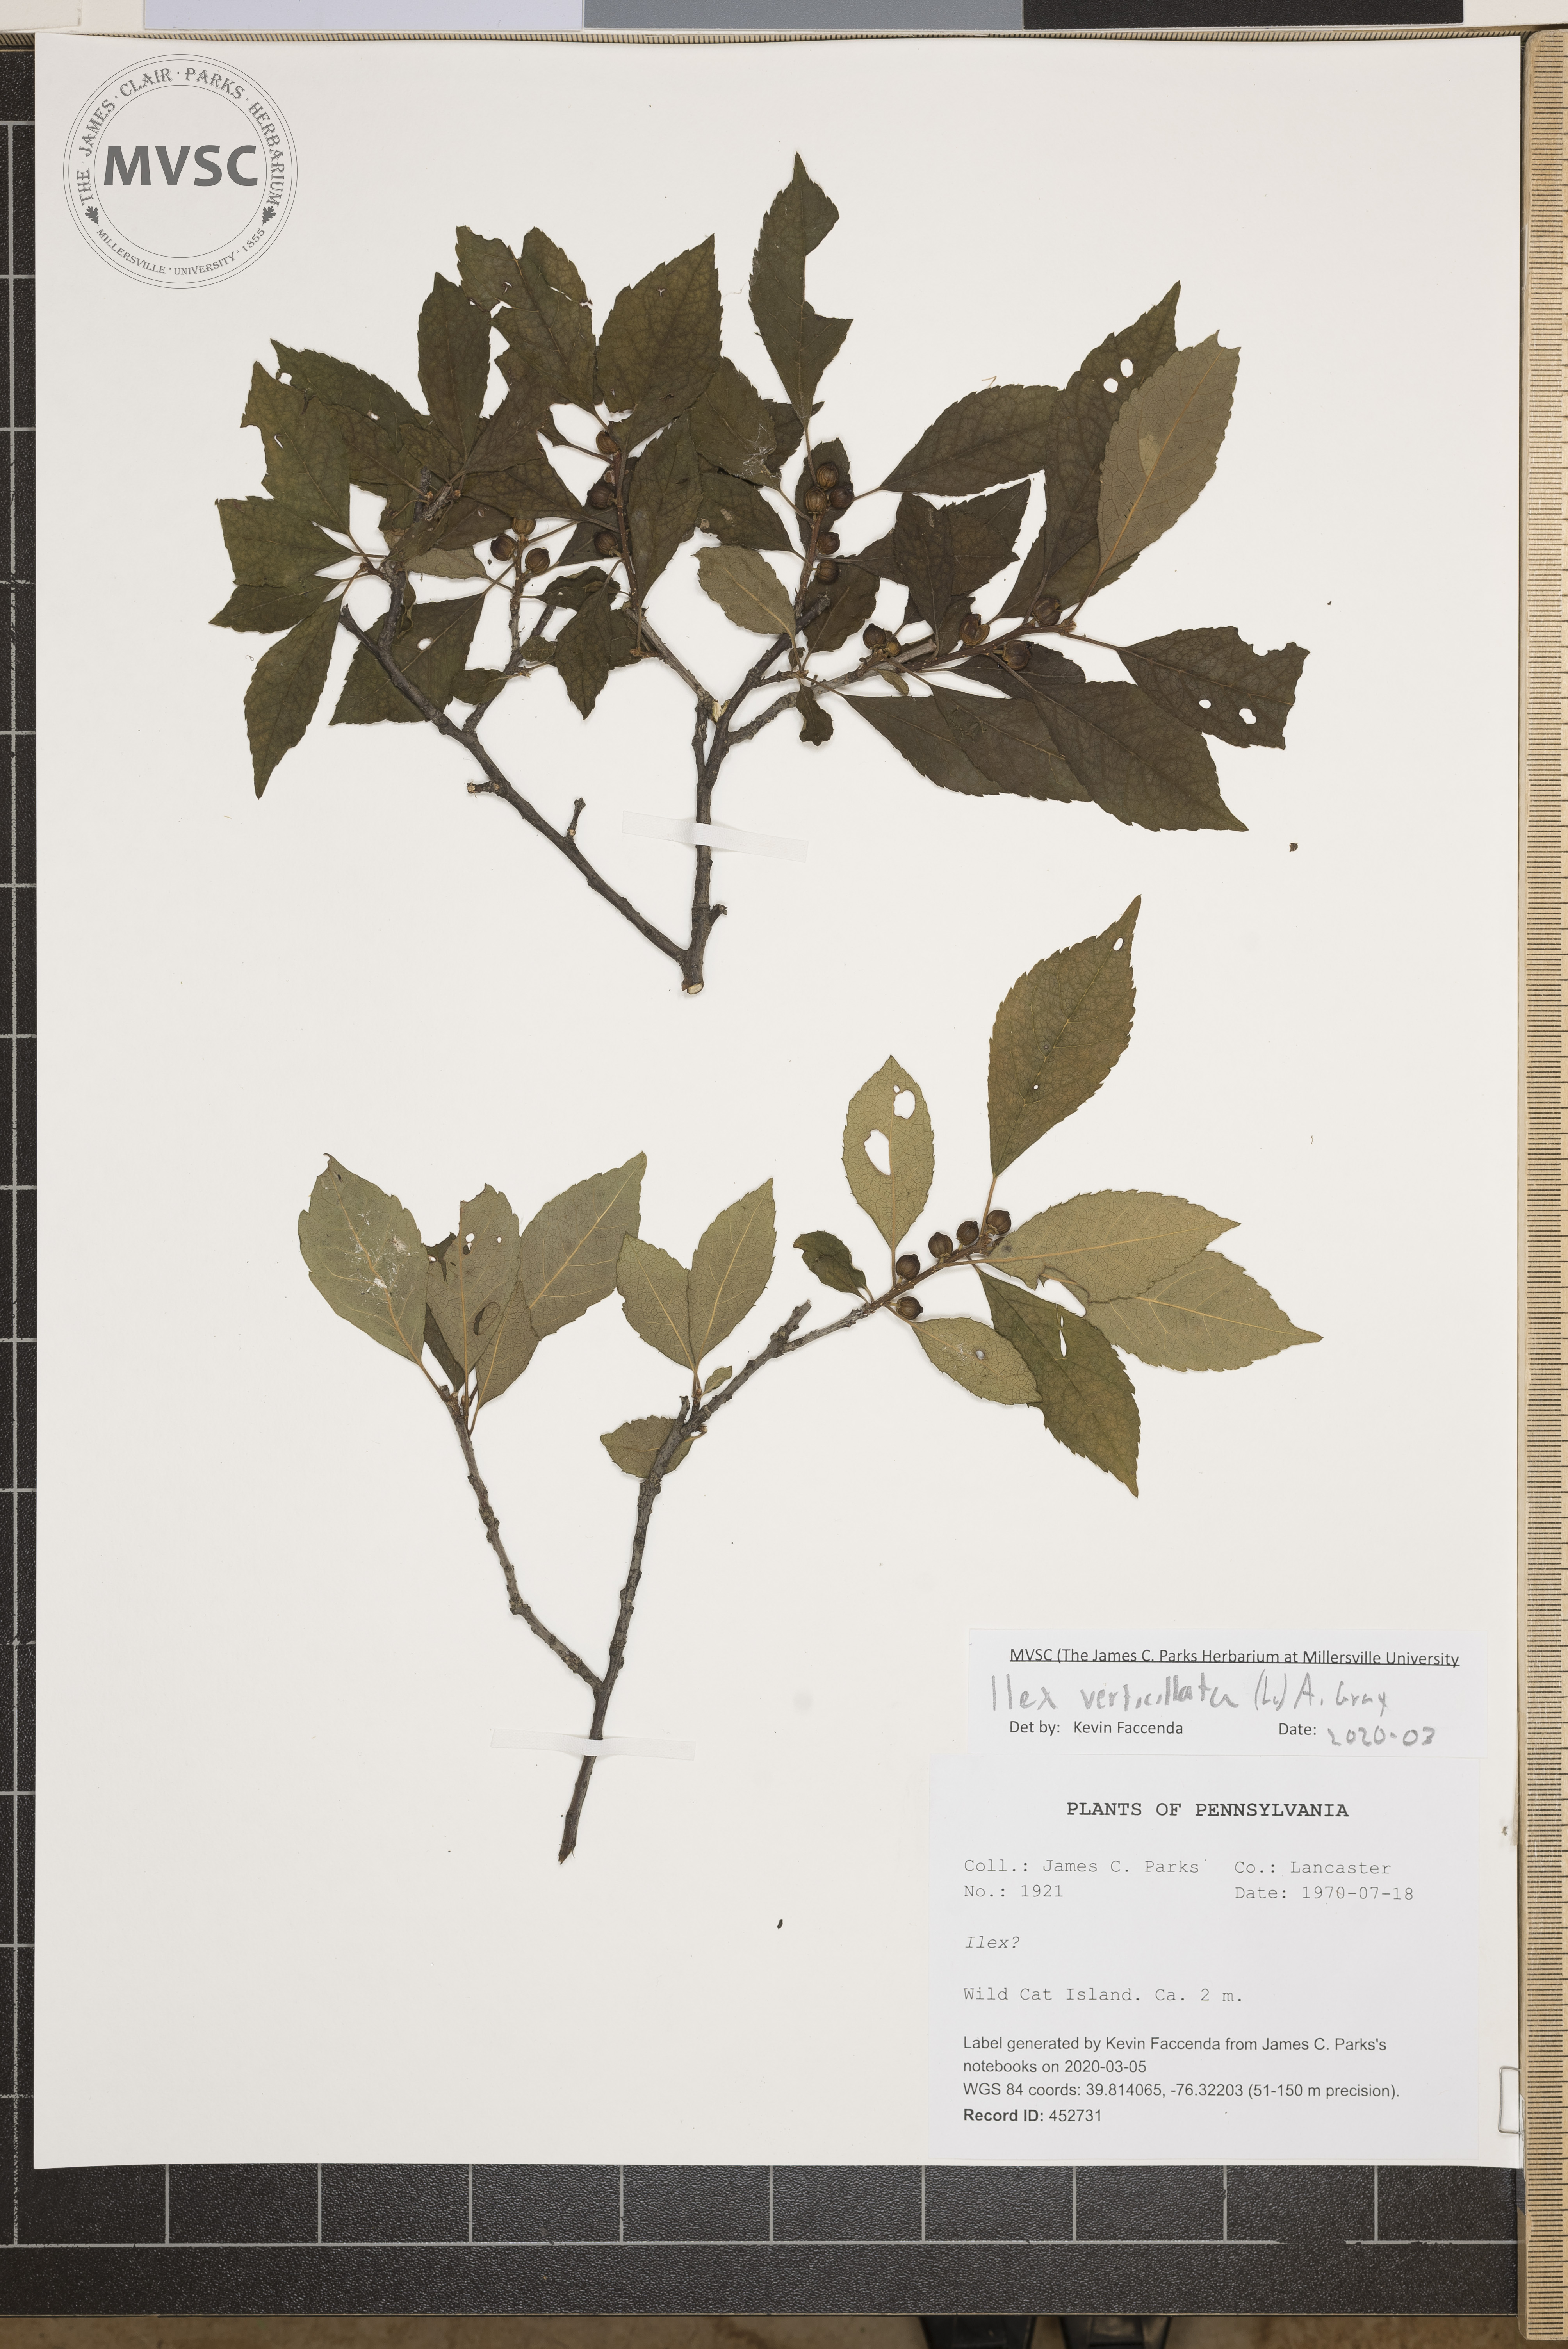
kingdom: Plantae
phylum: Tracheophyta
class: Magnoliopsida
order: Aquifoliales
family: Aquifoliaceae
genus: Ilex
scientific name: Ilex verticillata
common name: Virginia winterberry
